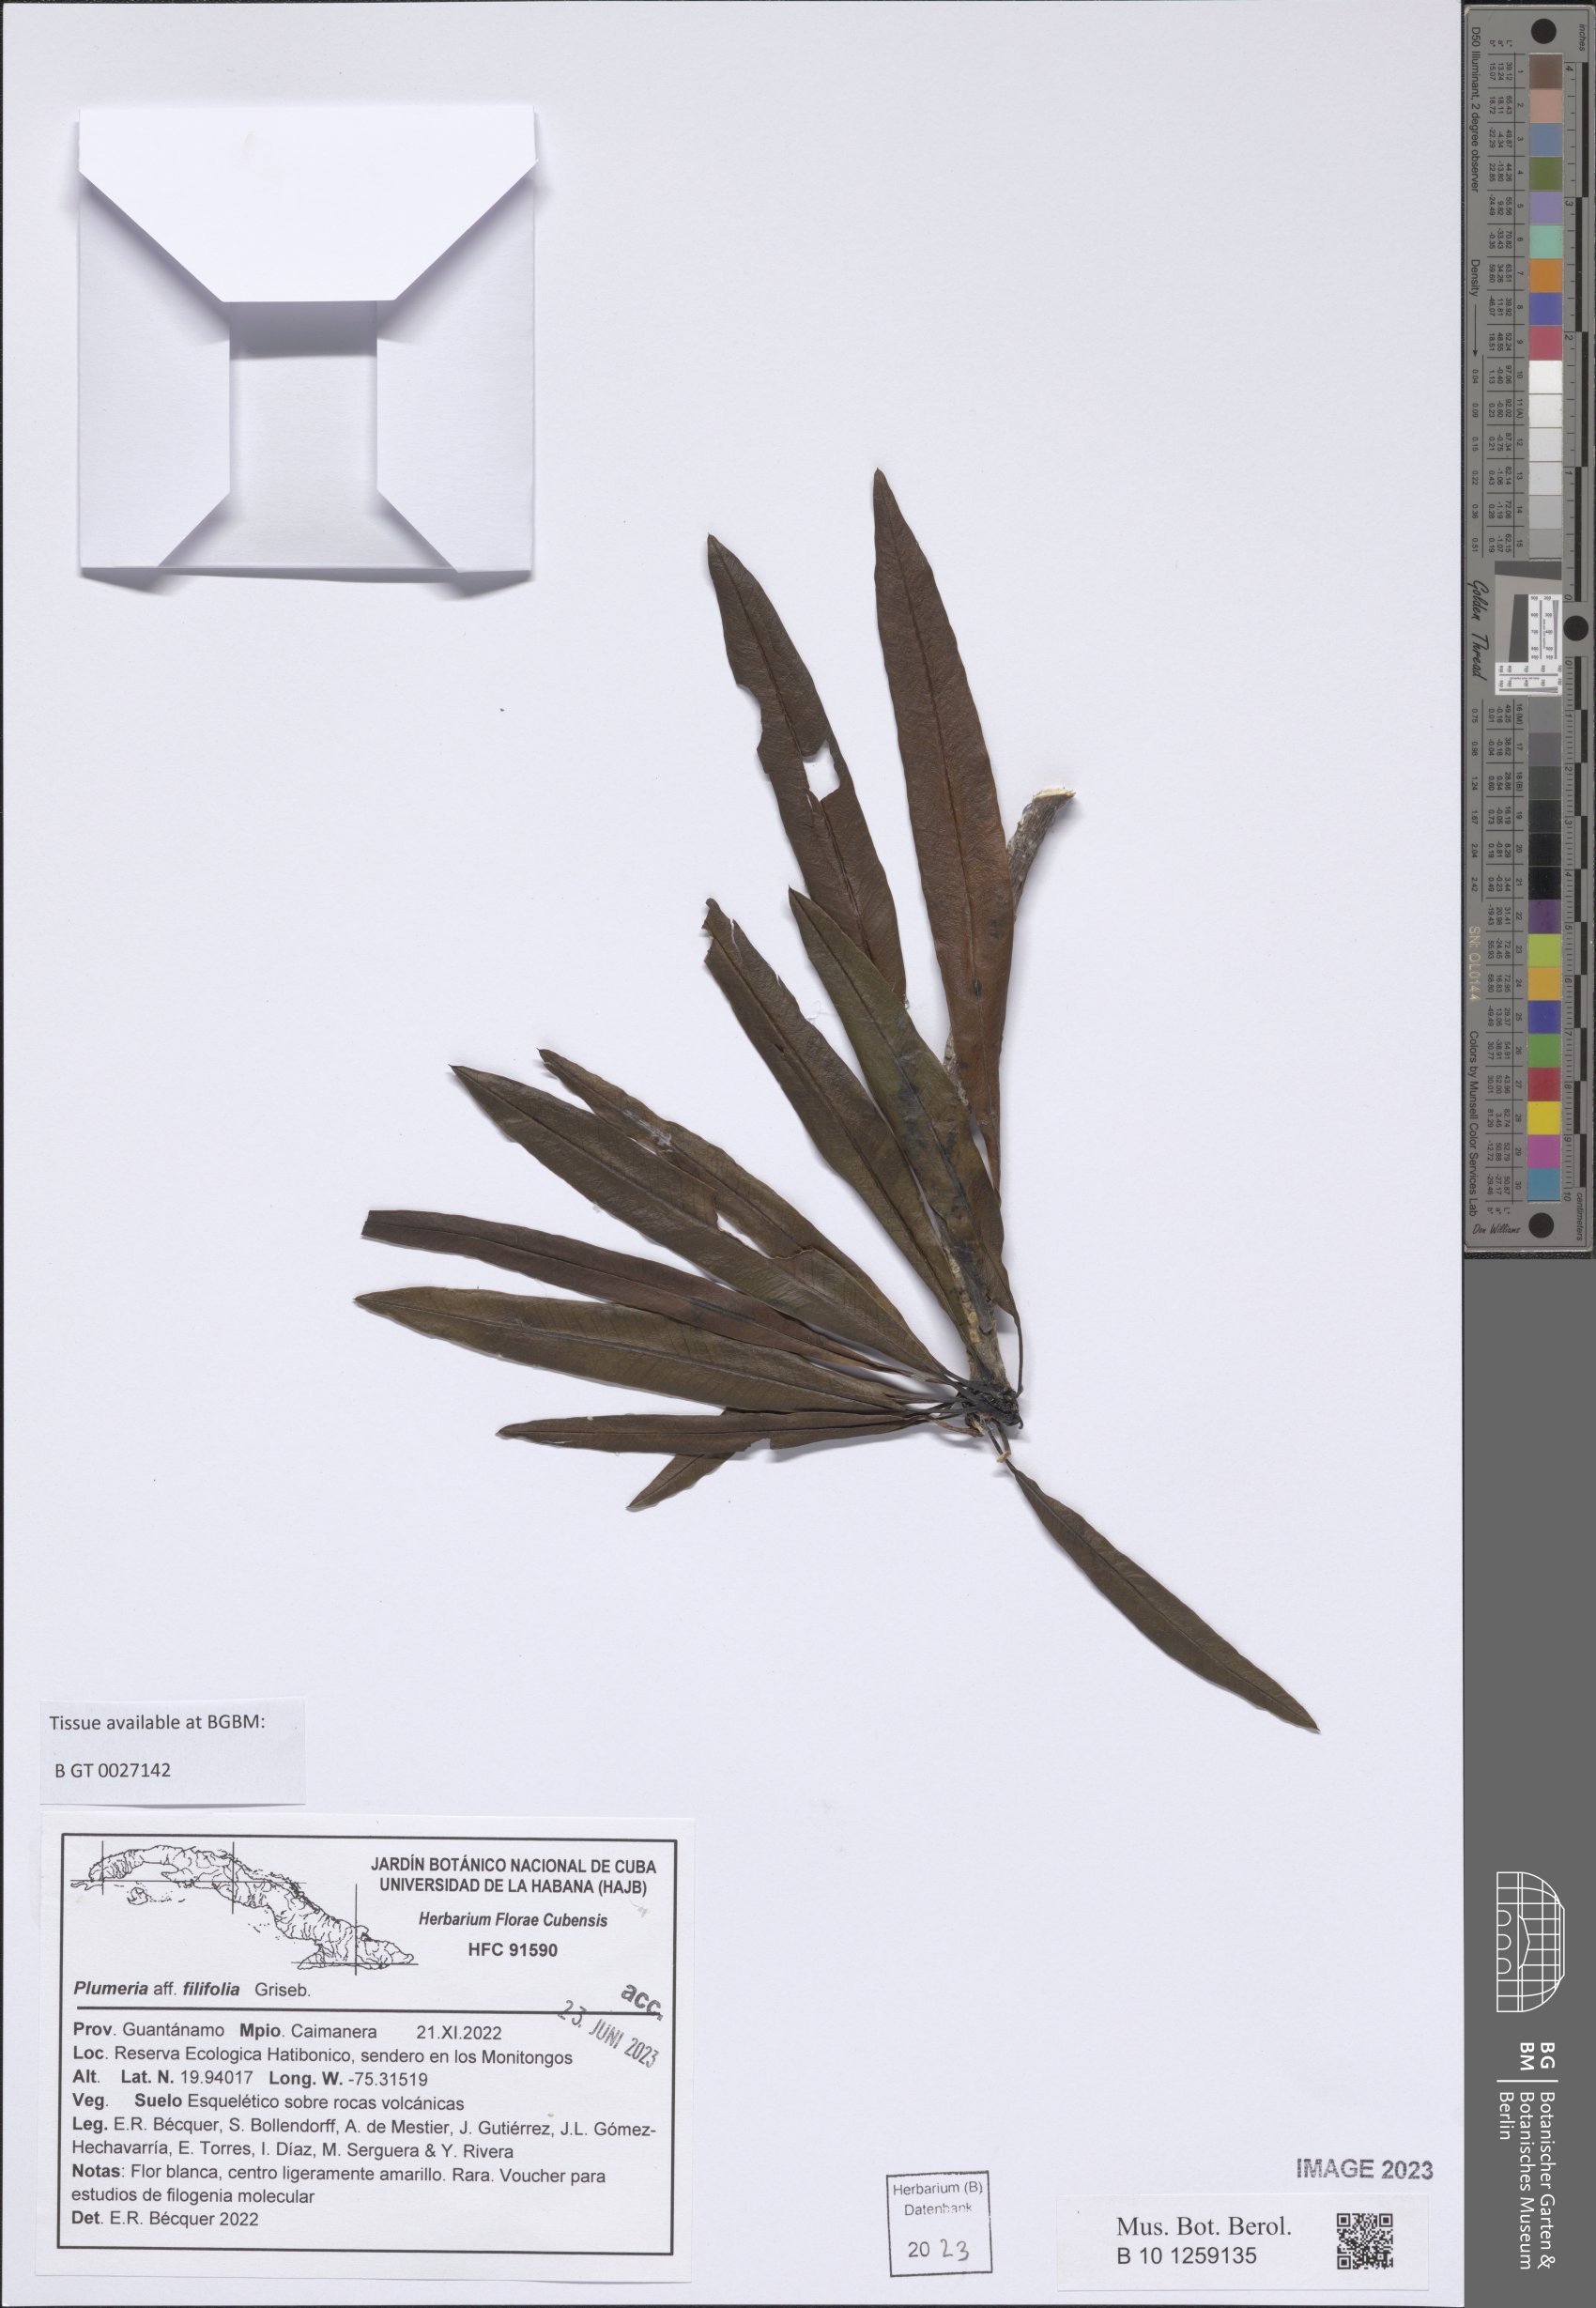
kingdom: Plantae
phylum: Tracheophyta
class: Magnoliopsida
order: Gentianales
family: Apocynaceae
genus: Plumeria
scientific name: Plumeria filifolia
